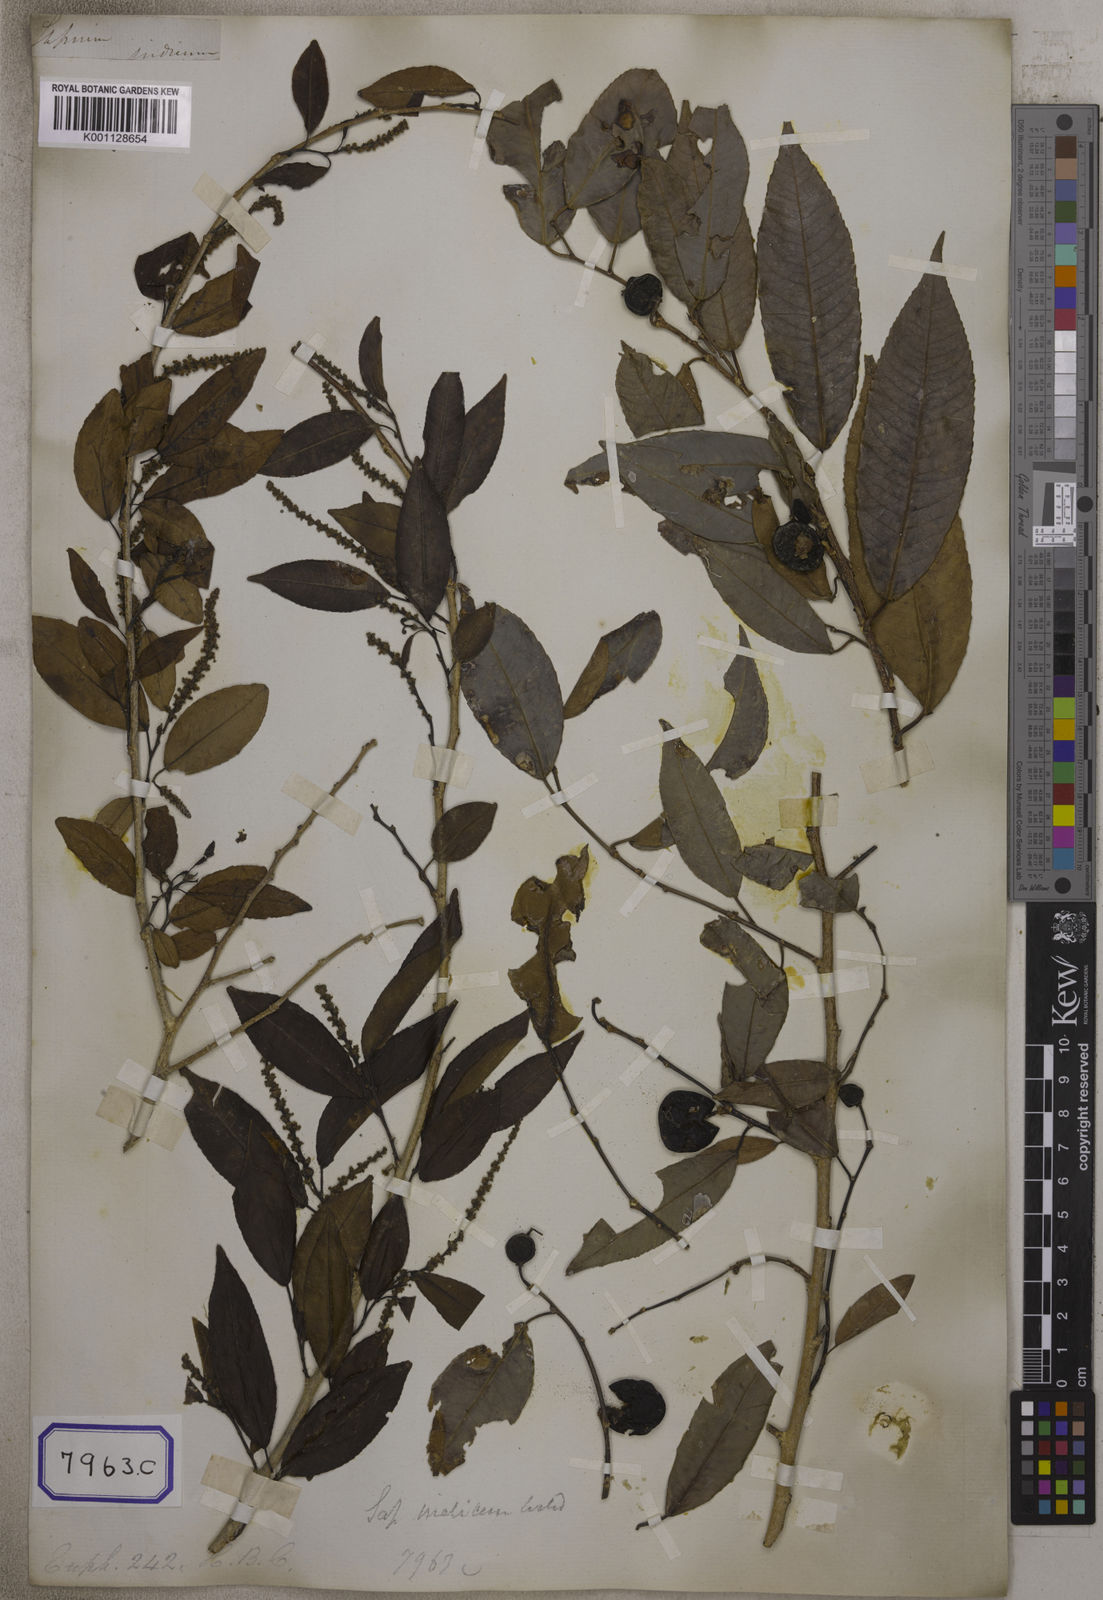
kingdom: Plantae
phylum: Tracheophyta
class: Magnoliopsida
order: Malpighiales
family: Euphorbiaceae
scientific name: Euphorbiaceae
